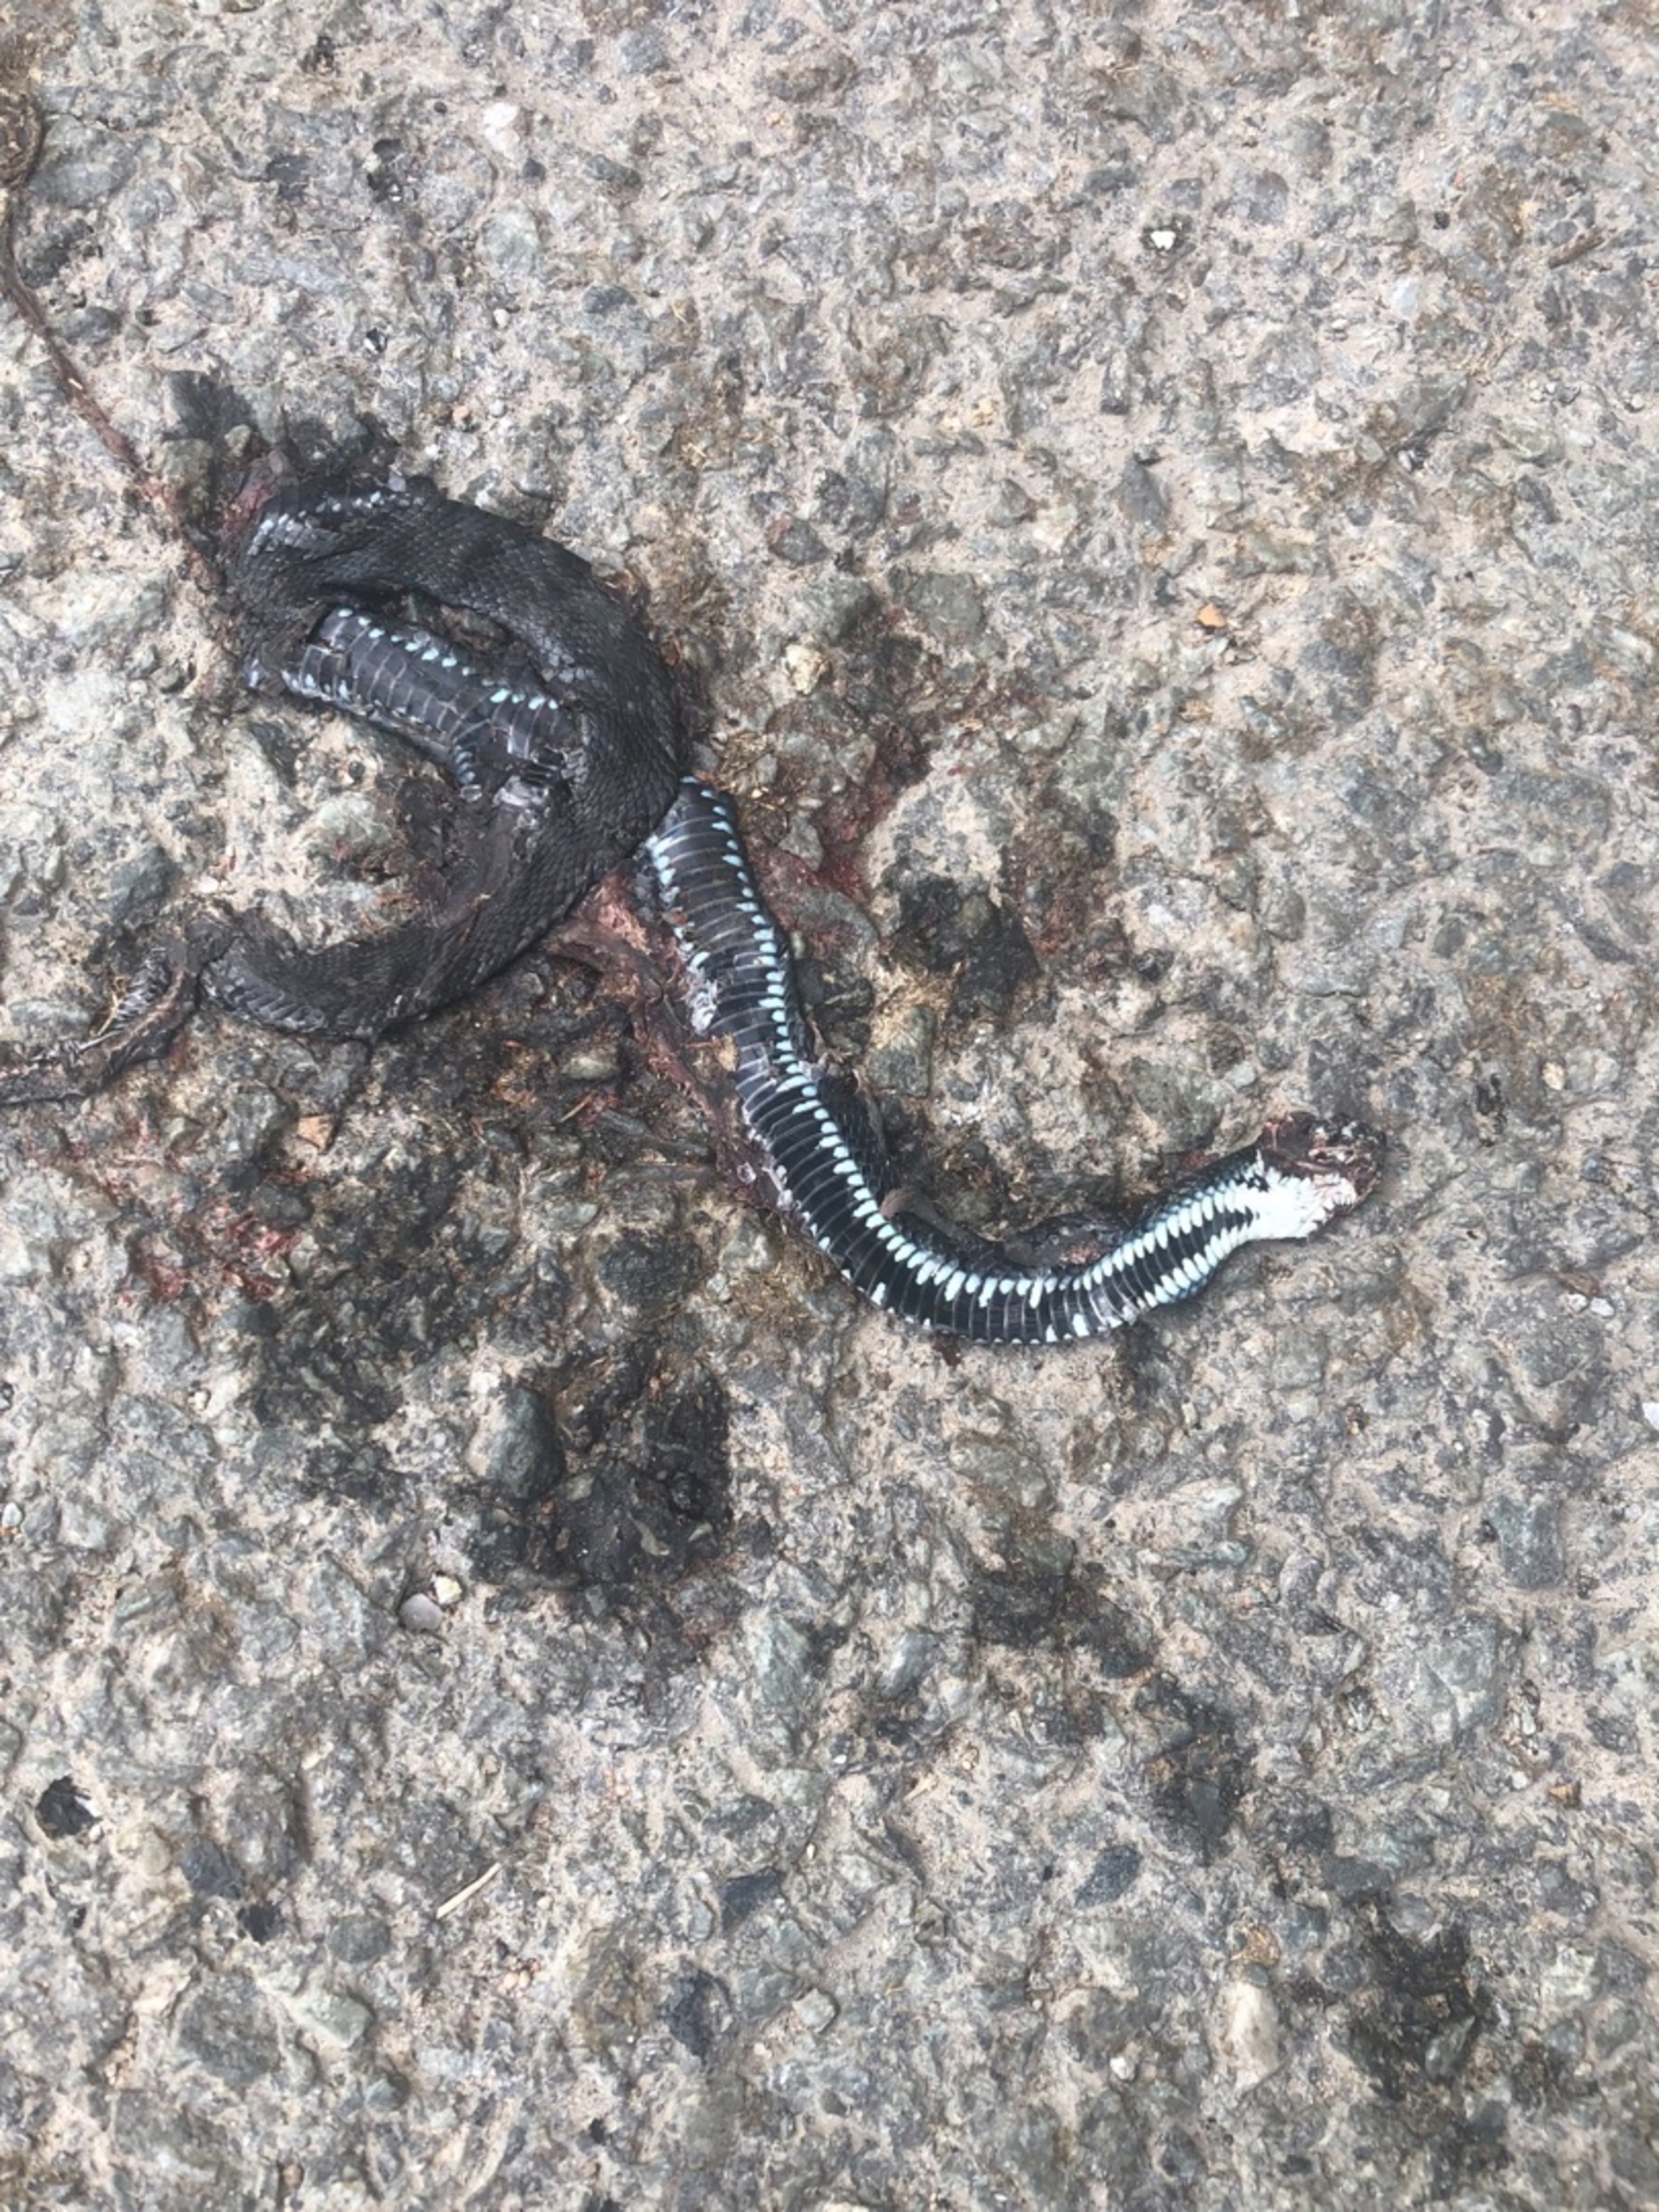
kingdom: Animalia
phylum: Chordata
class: Squamata
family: Colubridae
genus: Natrix
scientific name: Natrix natrix
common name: Snog
